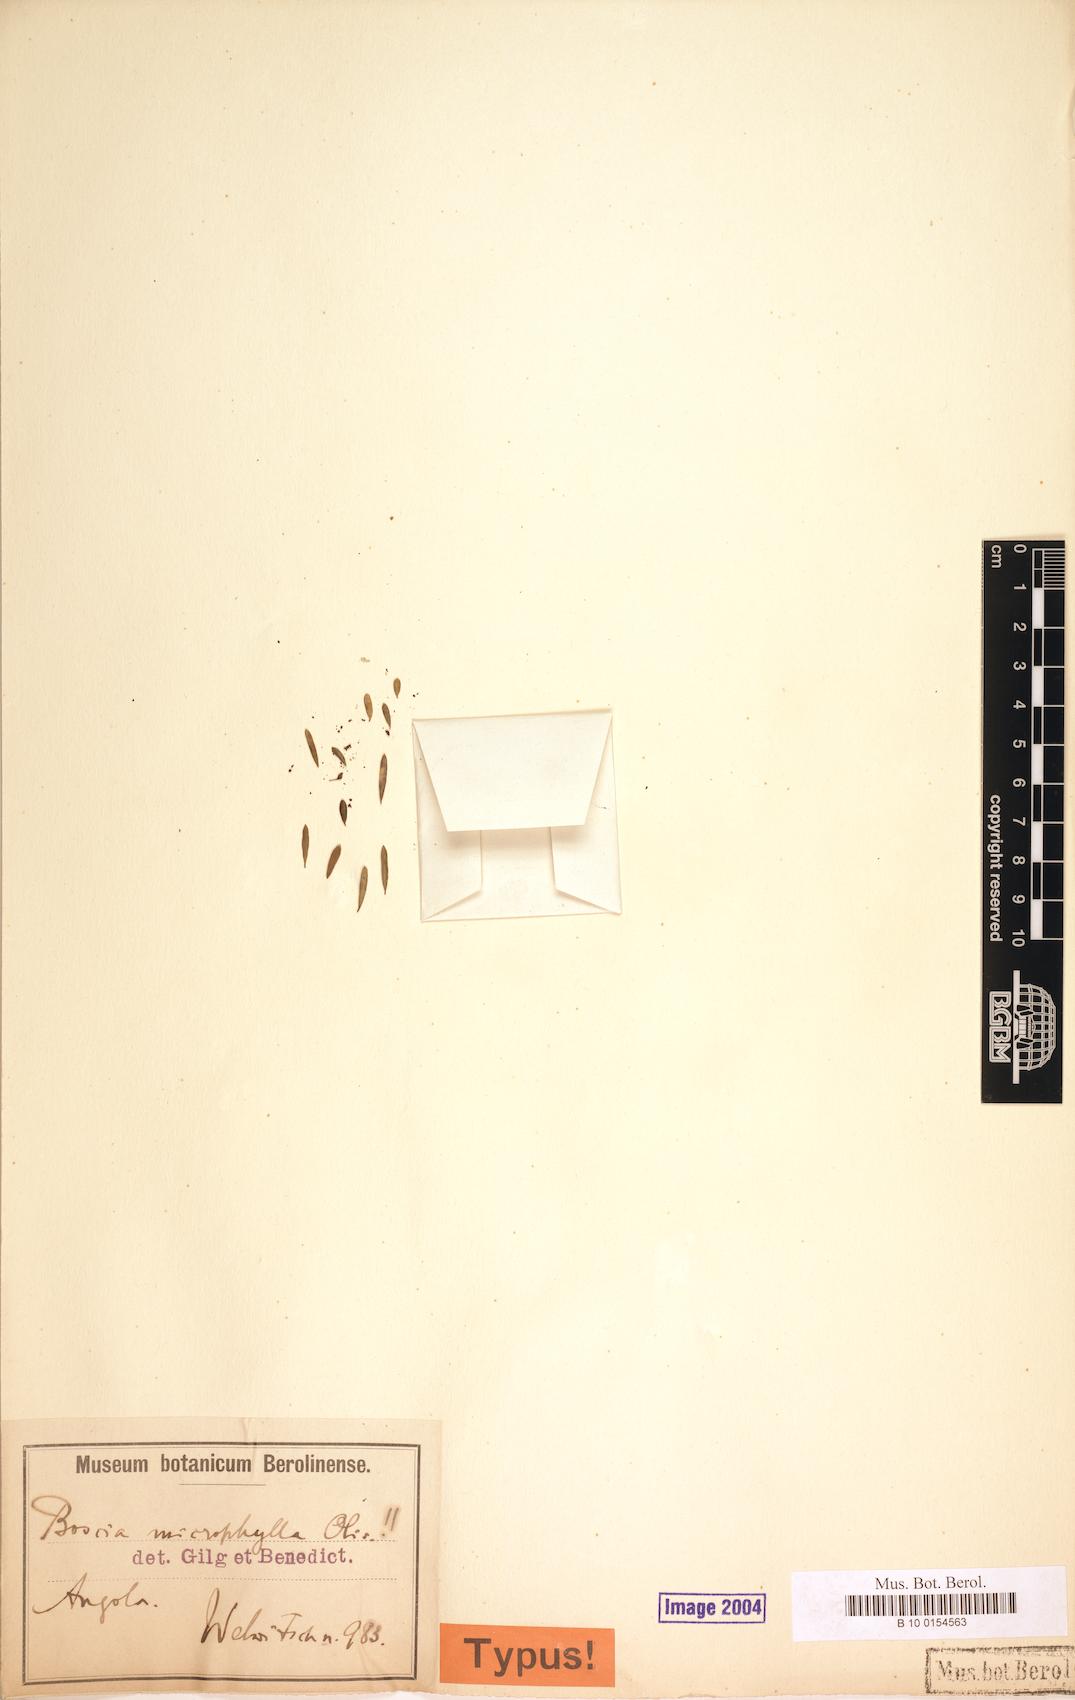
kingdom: Plantae
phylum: Tracheophyta
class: Magnoliopsida
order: Brassicales
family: Capparaceae
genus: Boscia
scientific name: Boscia microphylla
